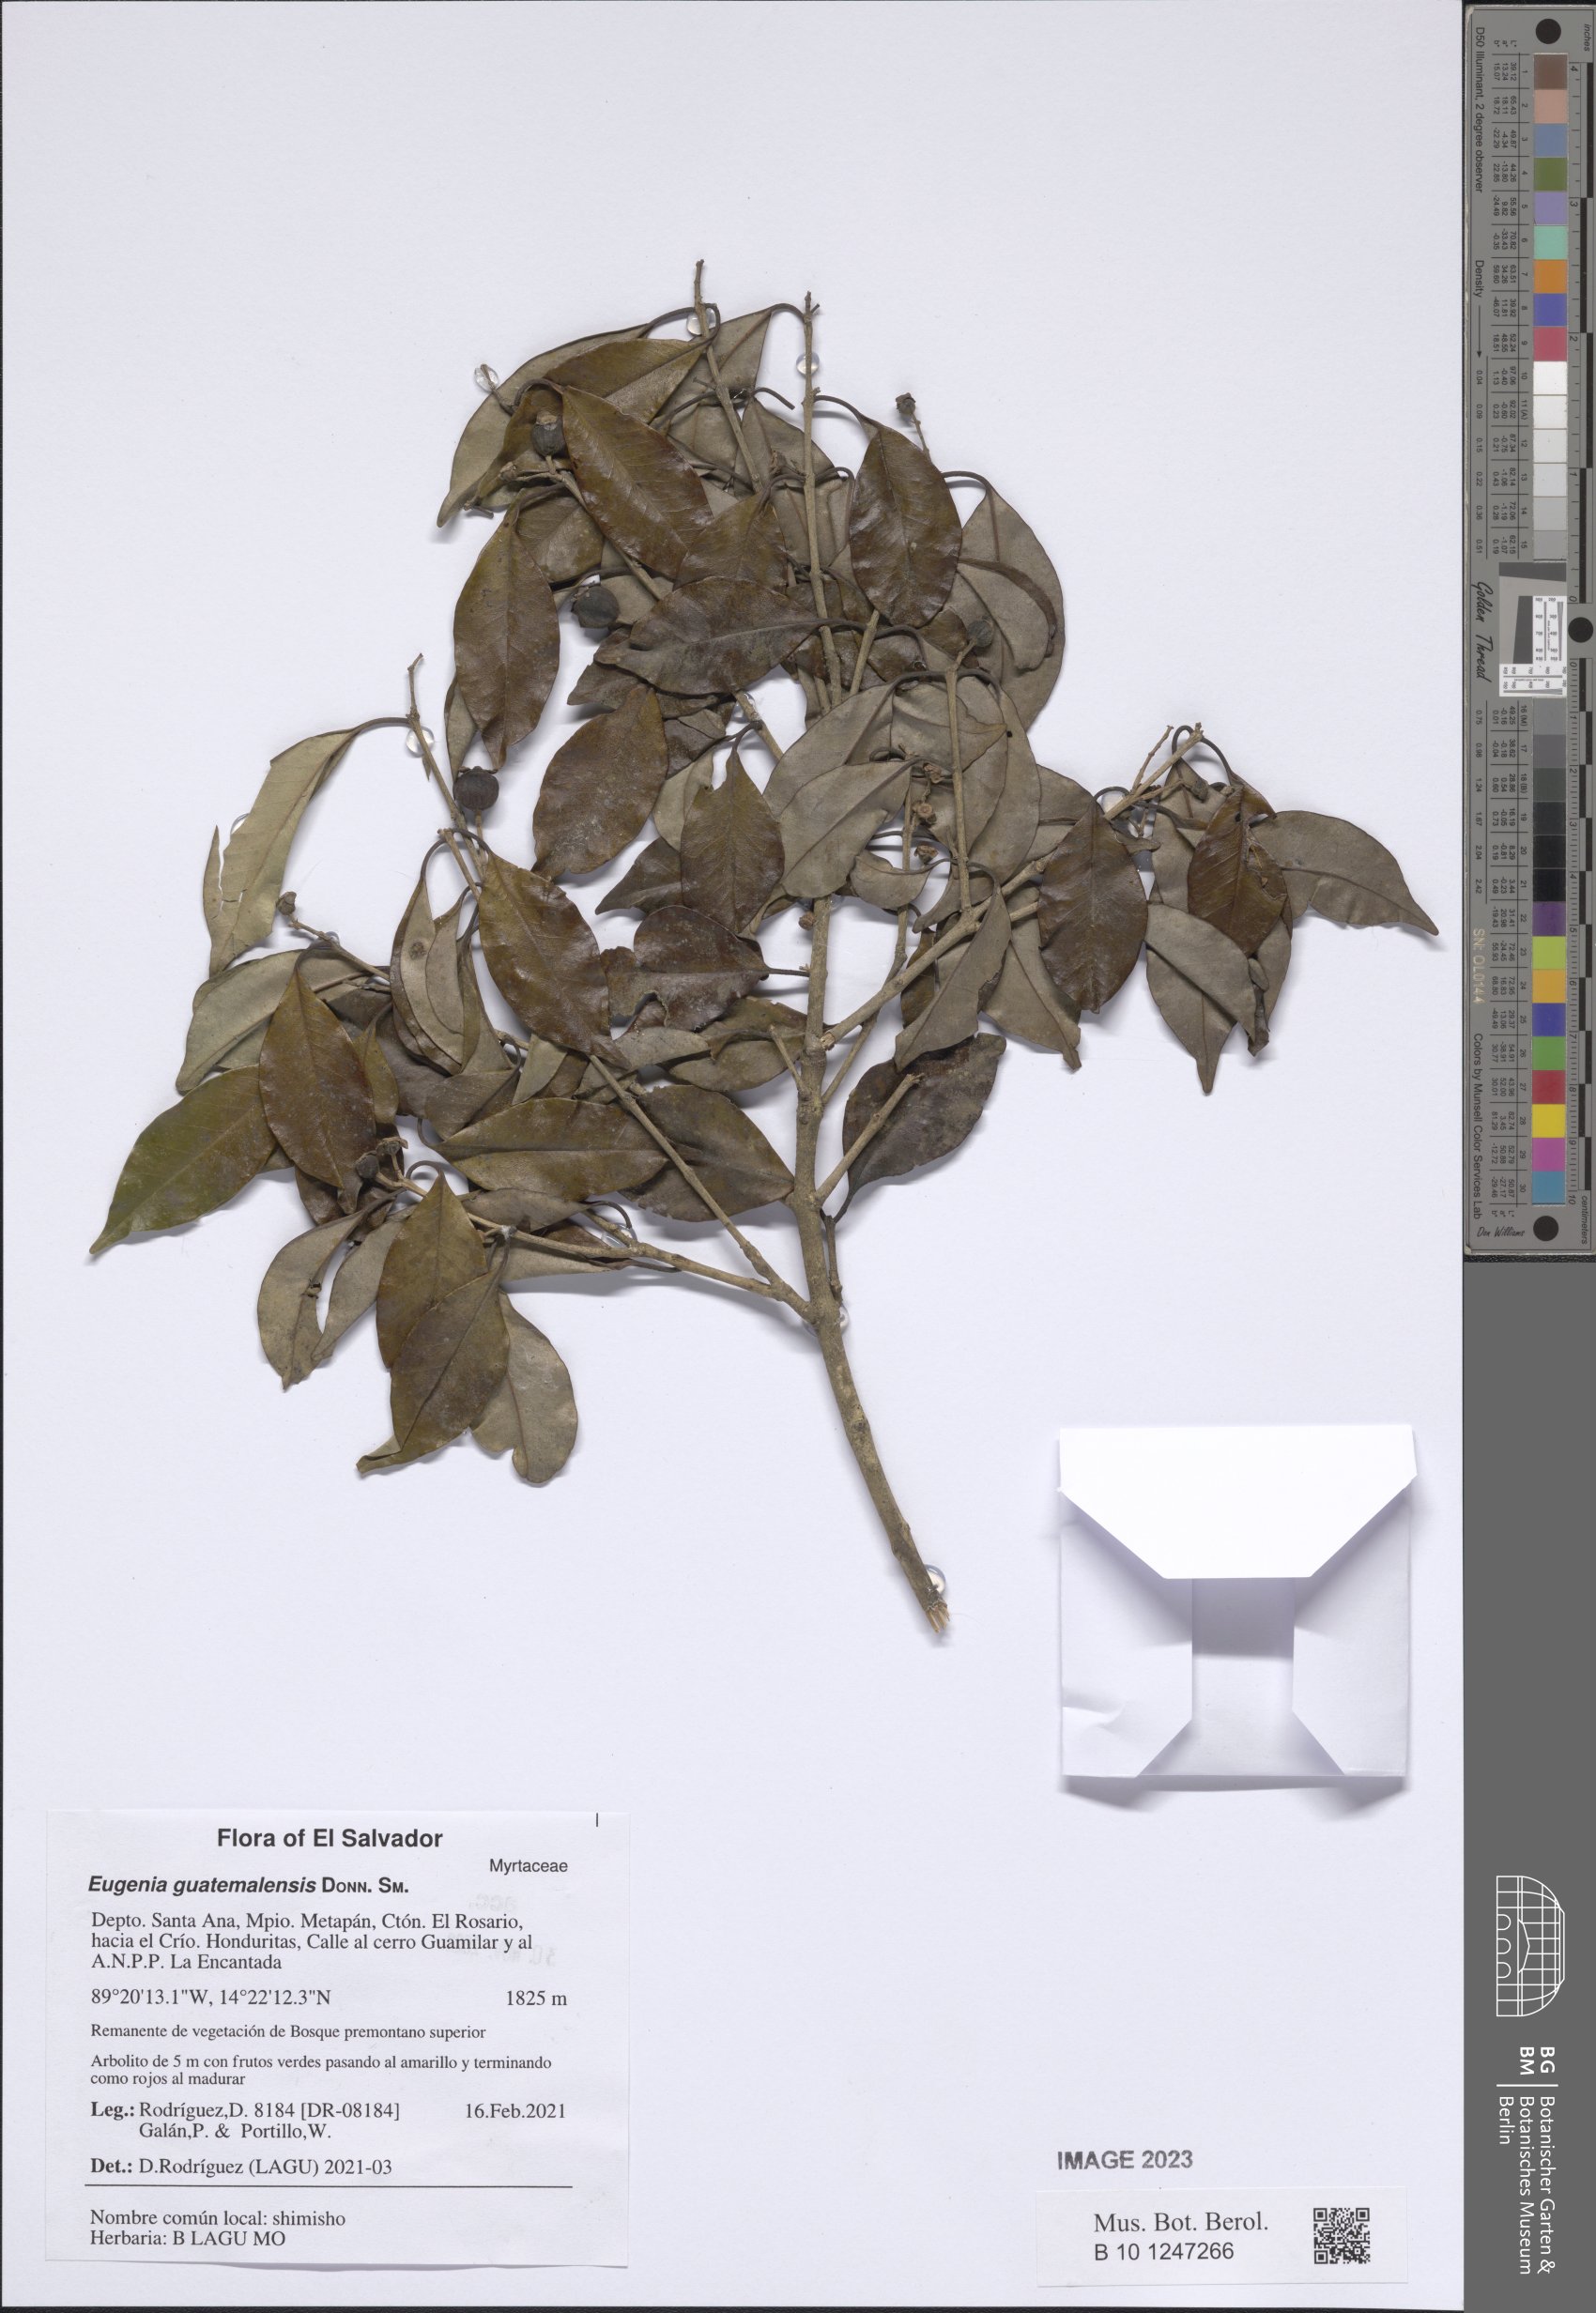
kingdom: Plantae
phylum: Tracheophyta
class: Magnoliopsida
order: Myrtales
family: Myrtaceae
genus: Eugenia
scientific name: Eugenia guatemalensis
